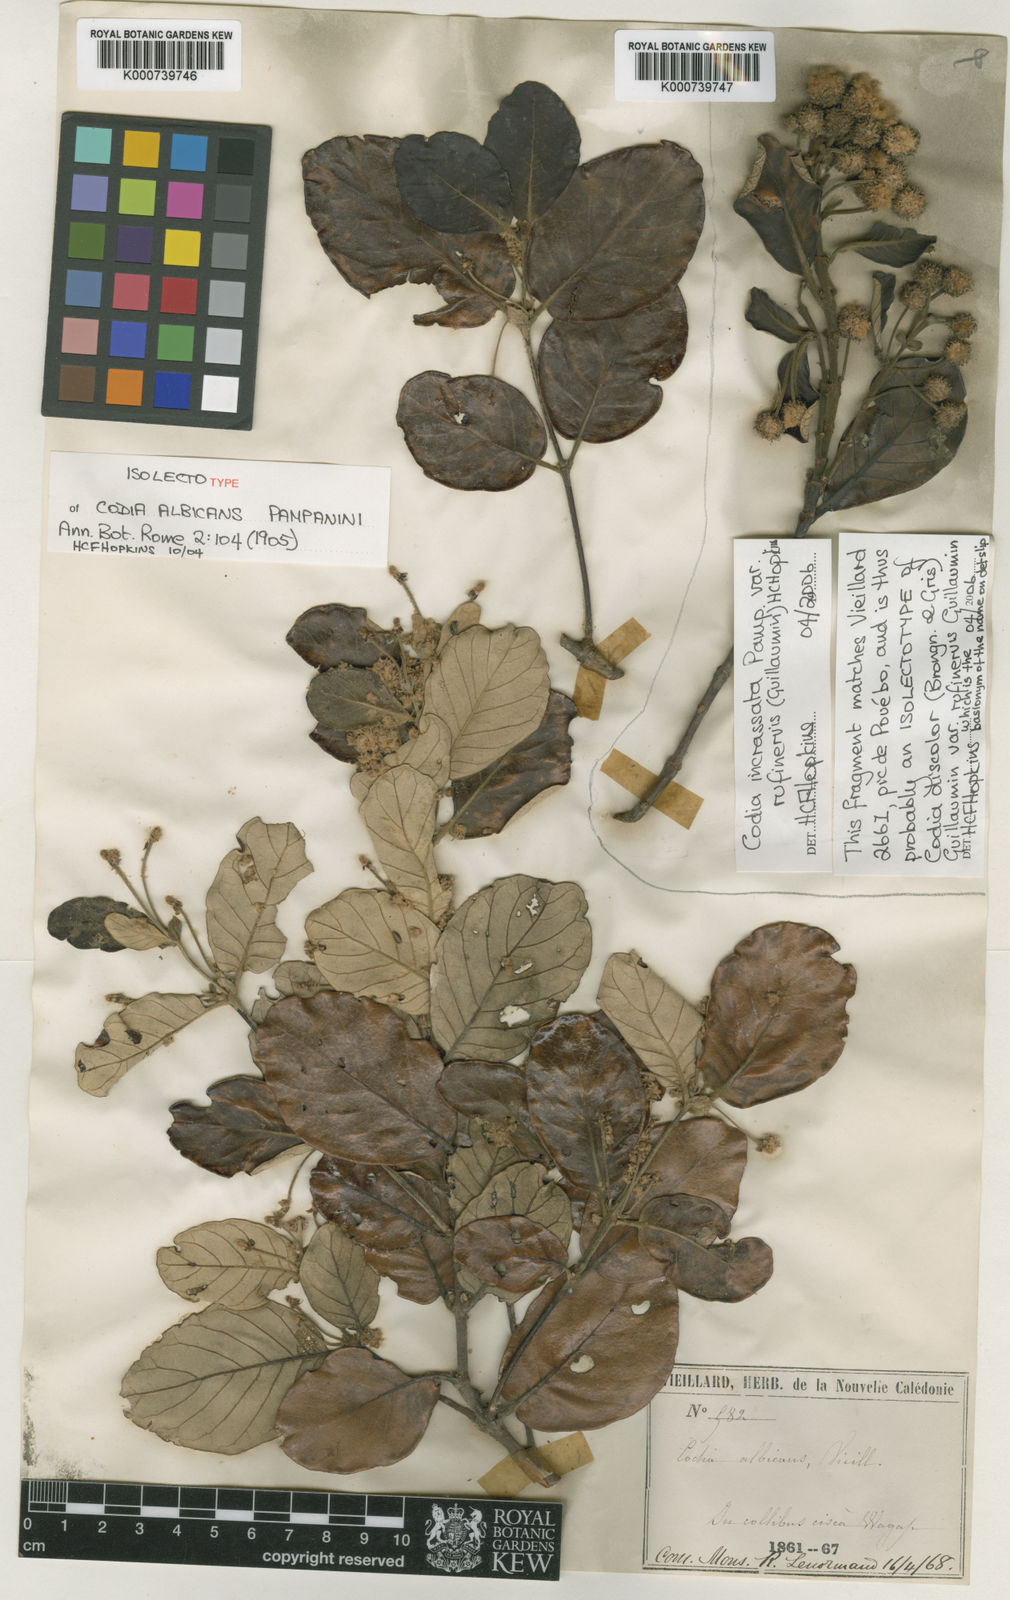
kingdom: Plantae
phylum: Tracheophyta
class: Magnoliopsida
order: Oxalidales
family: Cunoniaceae
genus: Codia
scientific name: Codia incrassata
